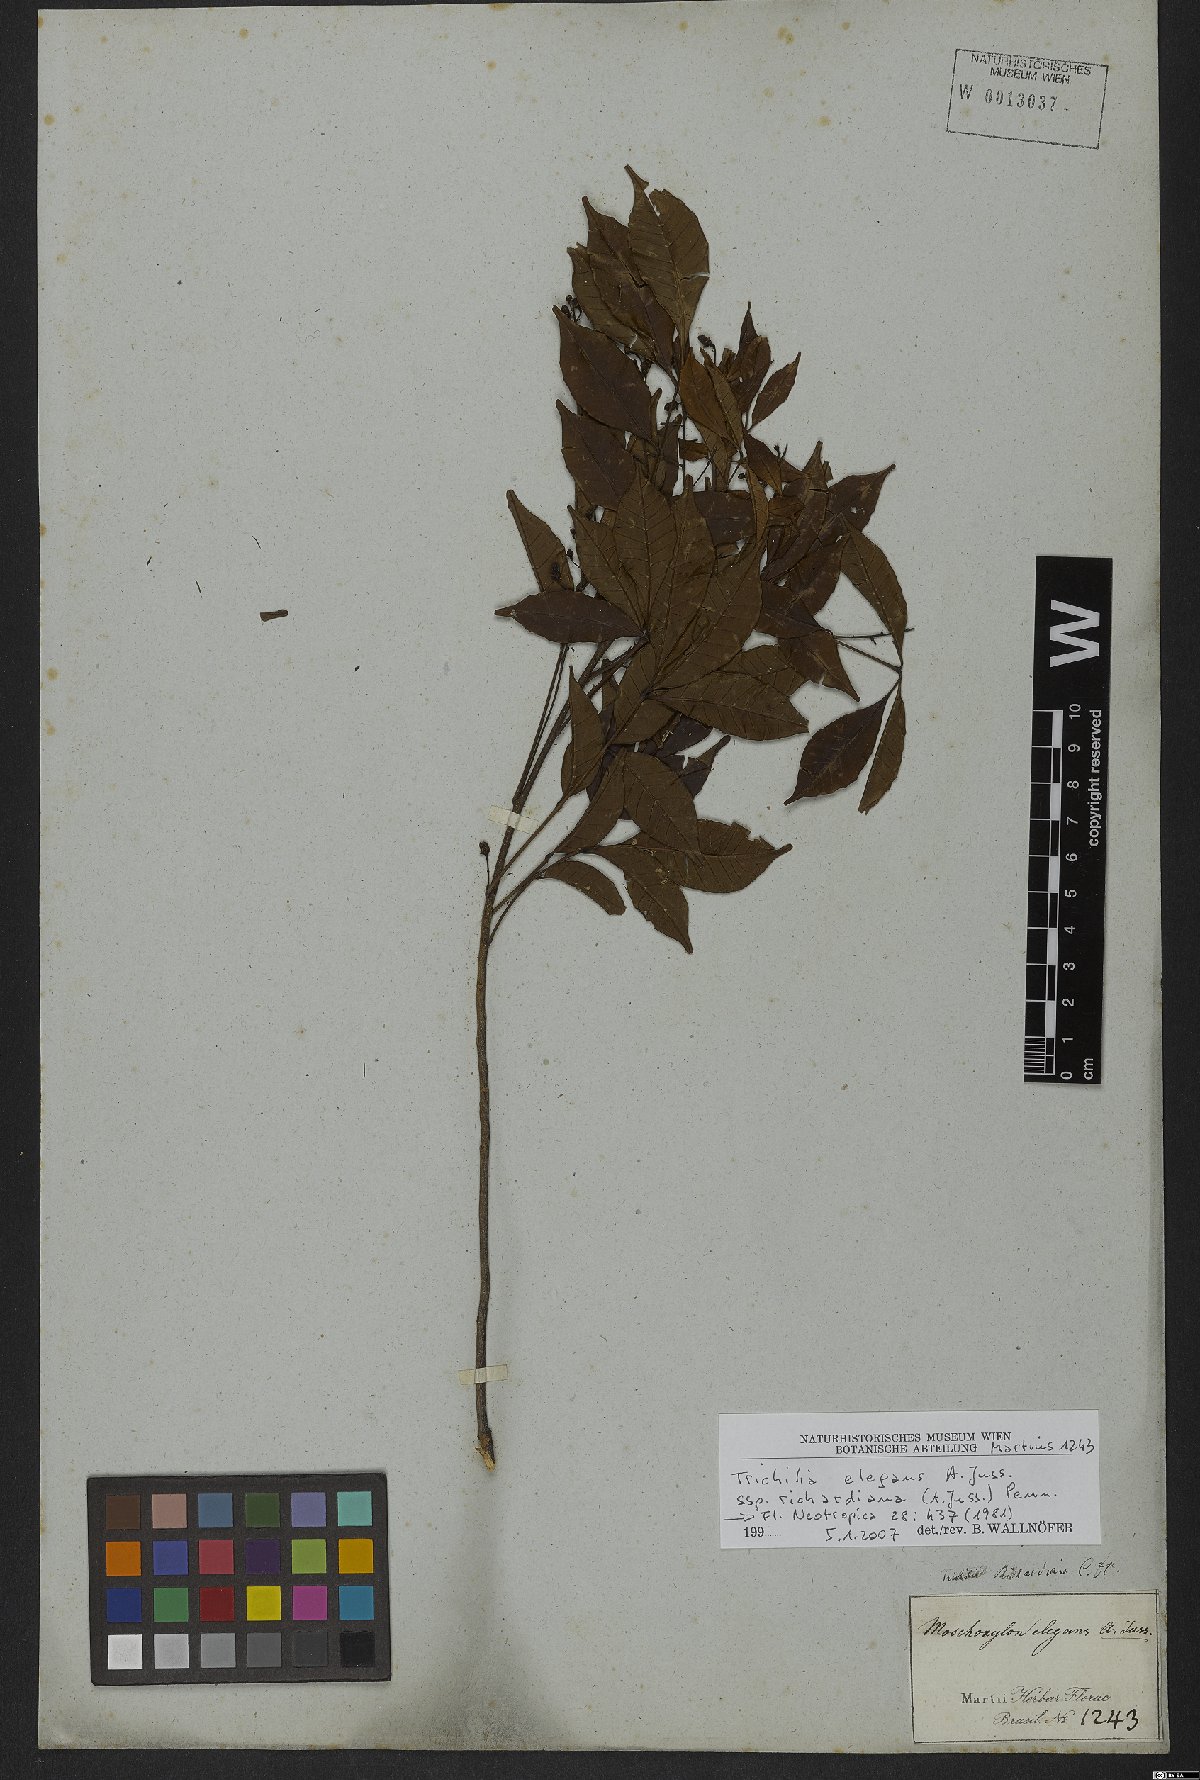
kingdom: Plantae
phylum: Tracheophyta
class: Magnoliopsida
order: Sapindales
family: Meliaceae
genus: Trichilia
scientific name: Trichilia elegans
